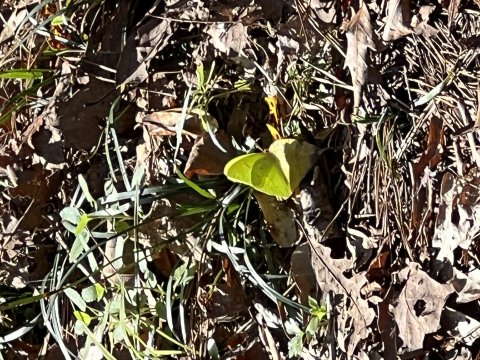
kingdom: Animalia
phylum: Arthropoda
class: Insecta
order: Lepidoptera
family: Pieridae
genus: Phoebis
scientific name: Phoebis sennae
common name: Cloudless Sulphur
